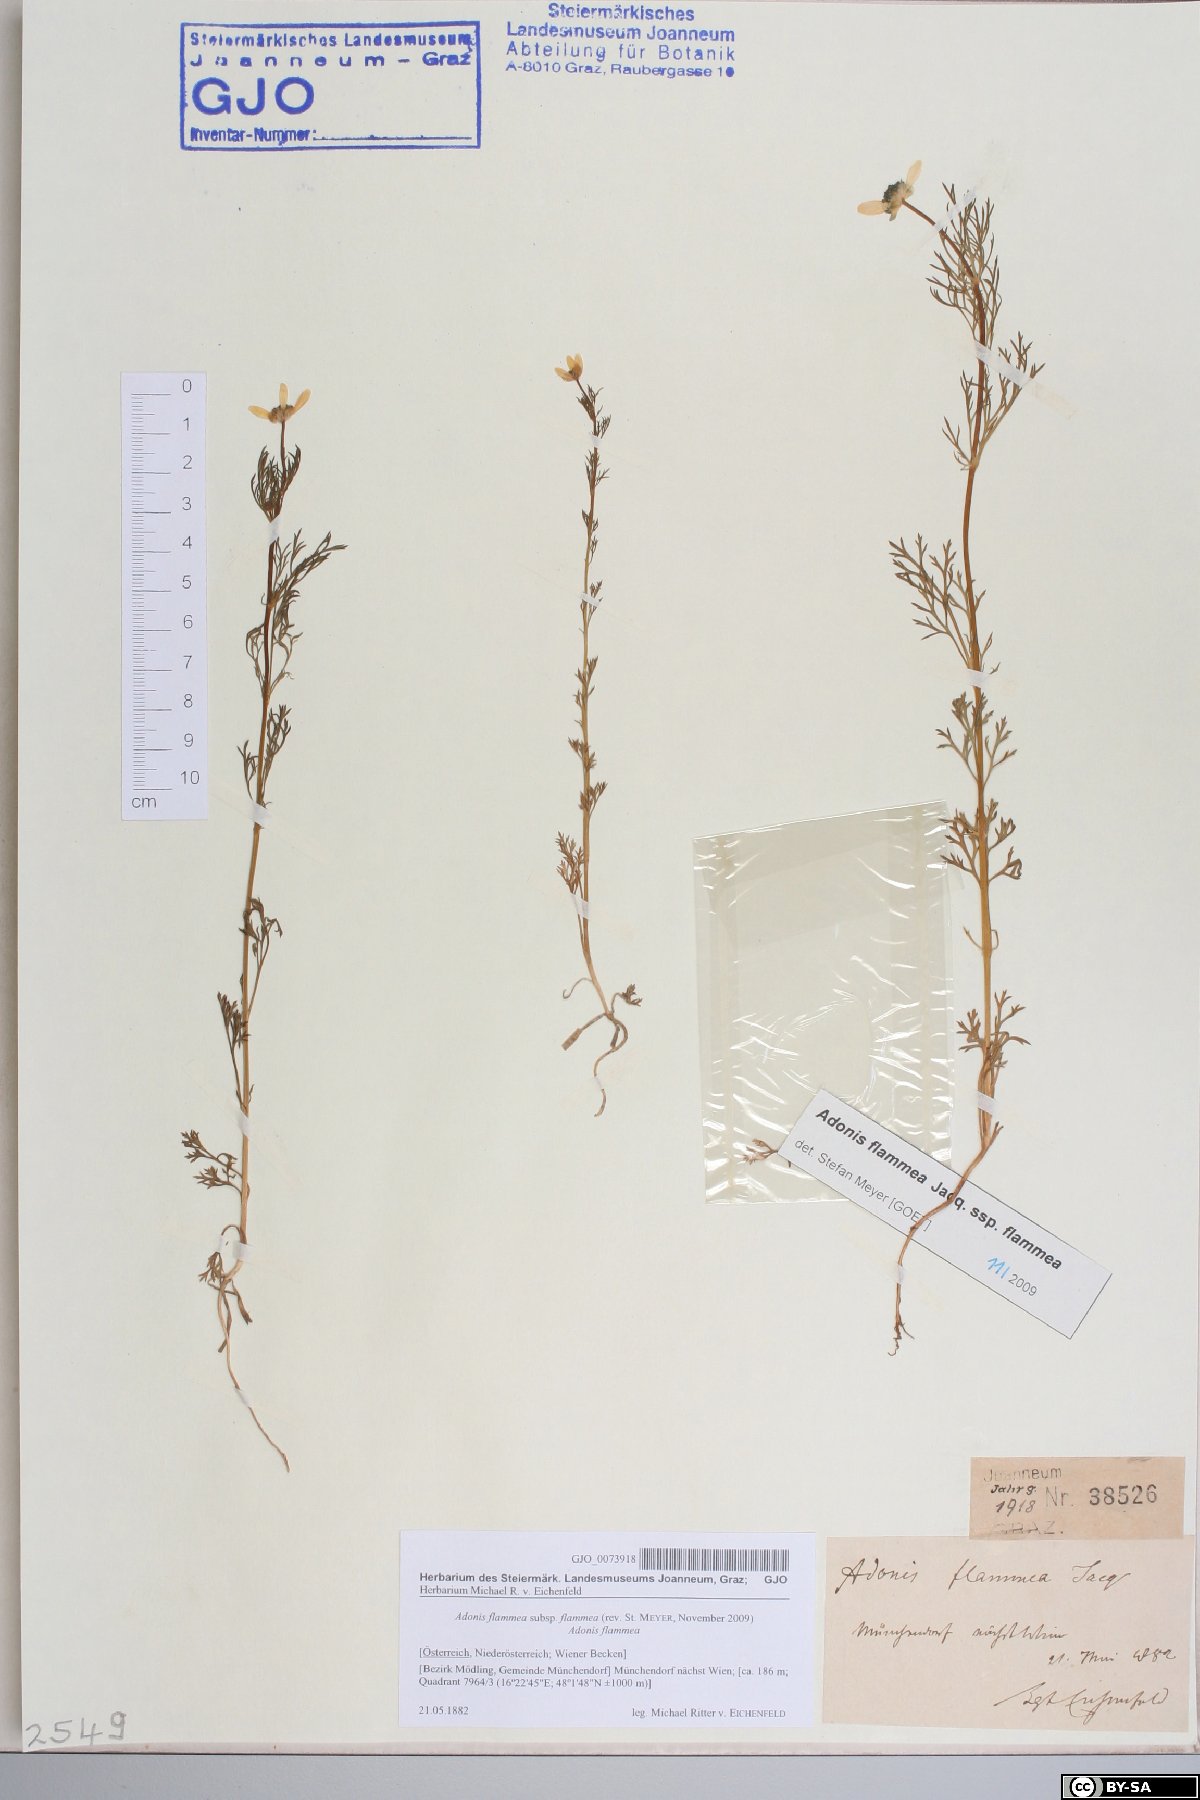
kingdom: Plantae
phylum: Tracheophyta
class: Magnoliopsida
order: Ranunculales
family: Ranunculaceae
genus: Adonis
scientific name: Adonis flammea
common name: Large pheasant's-eye
